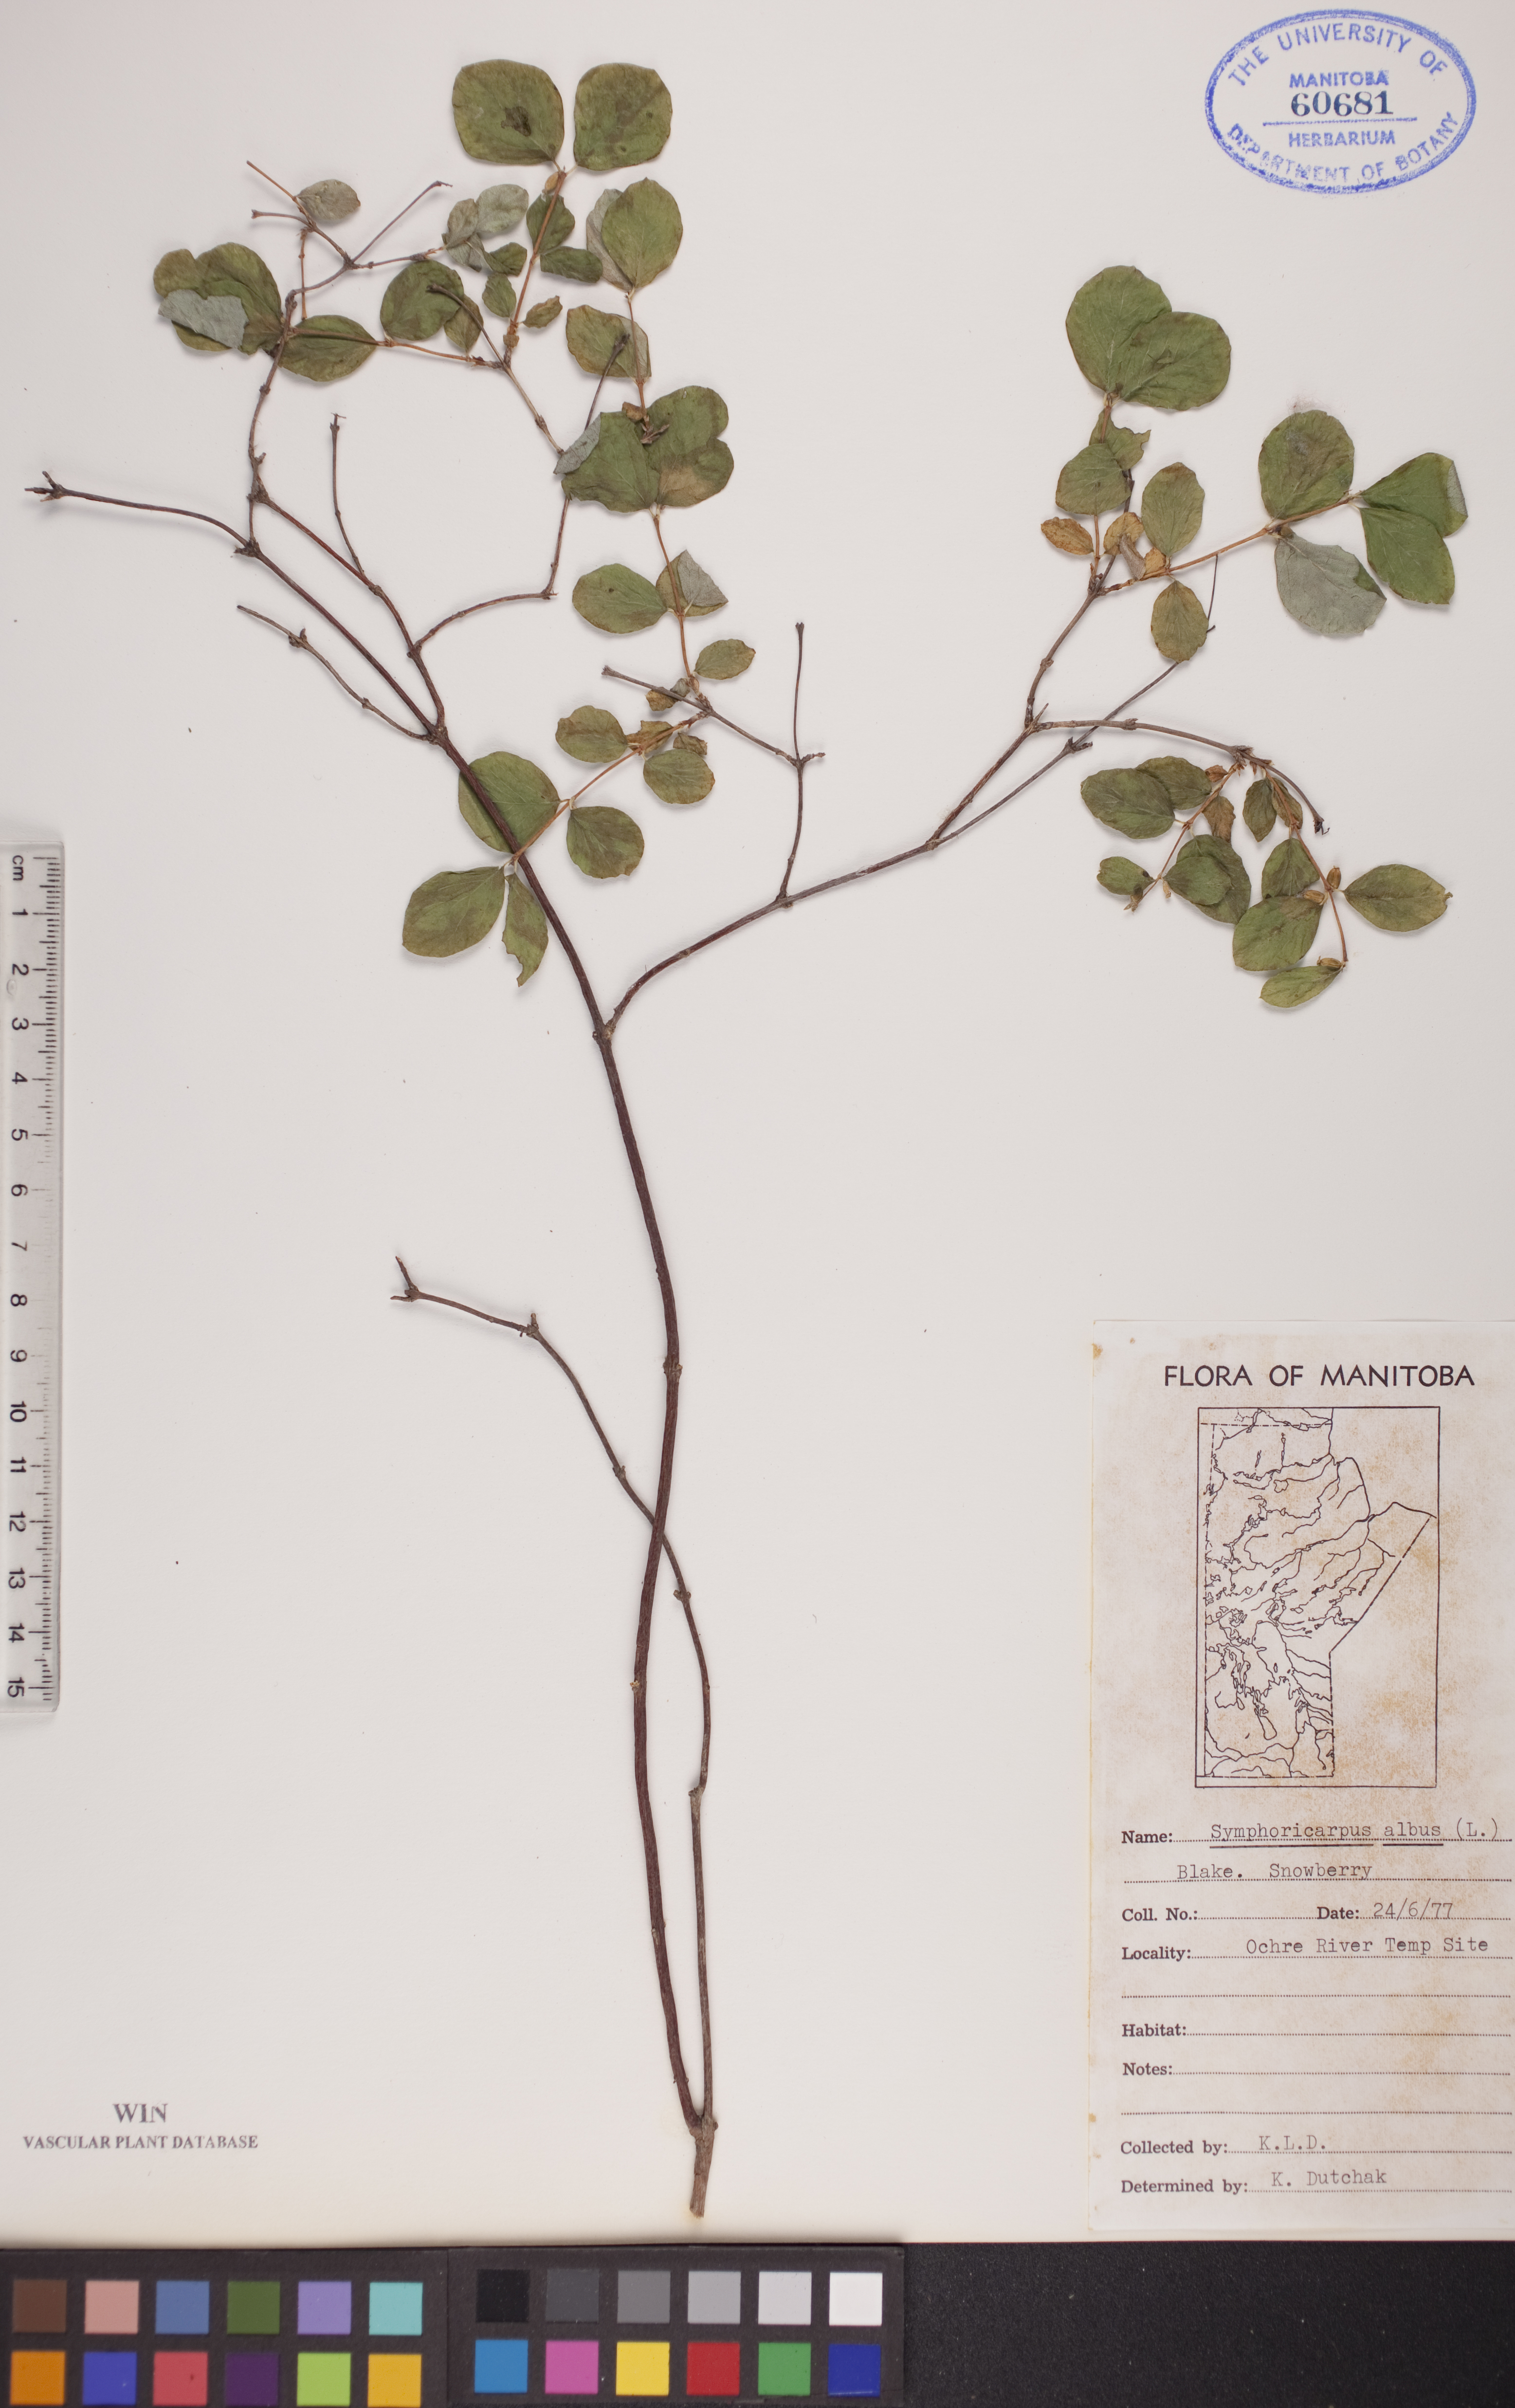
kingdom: Plantae
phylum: Tracheophyta
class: Magnoliopsida
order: Dipsacales
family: Caprifoliaceae
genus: Symphoricarpos
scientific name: Symphoricarpos albus
